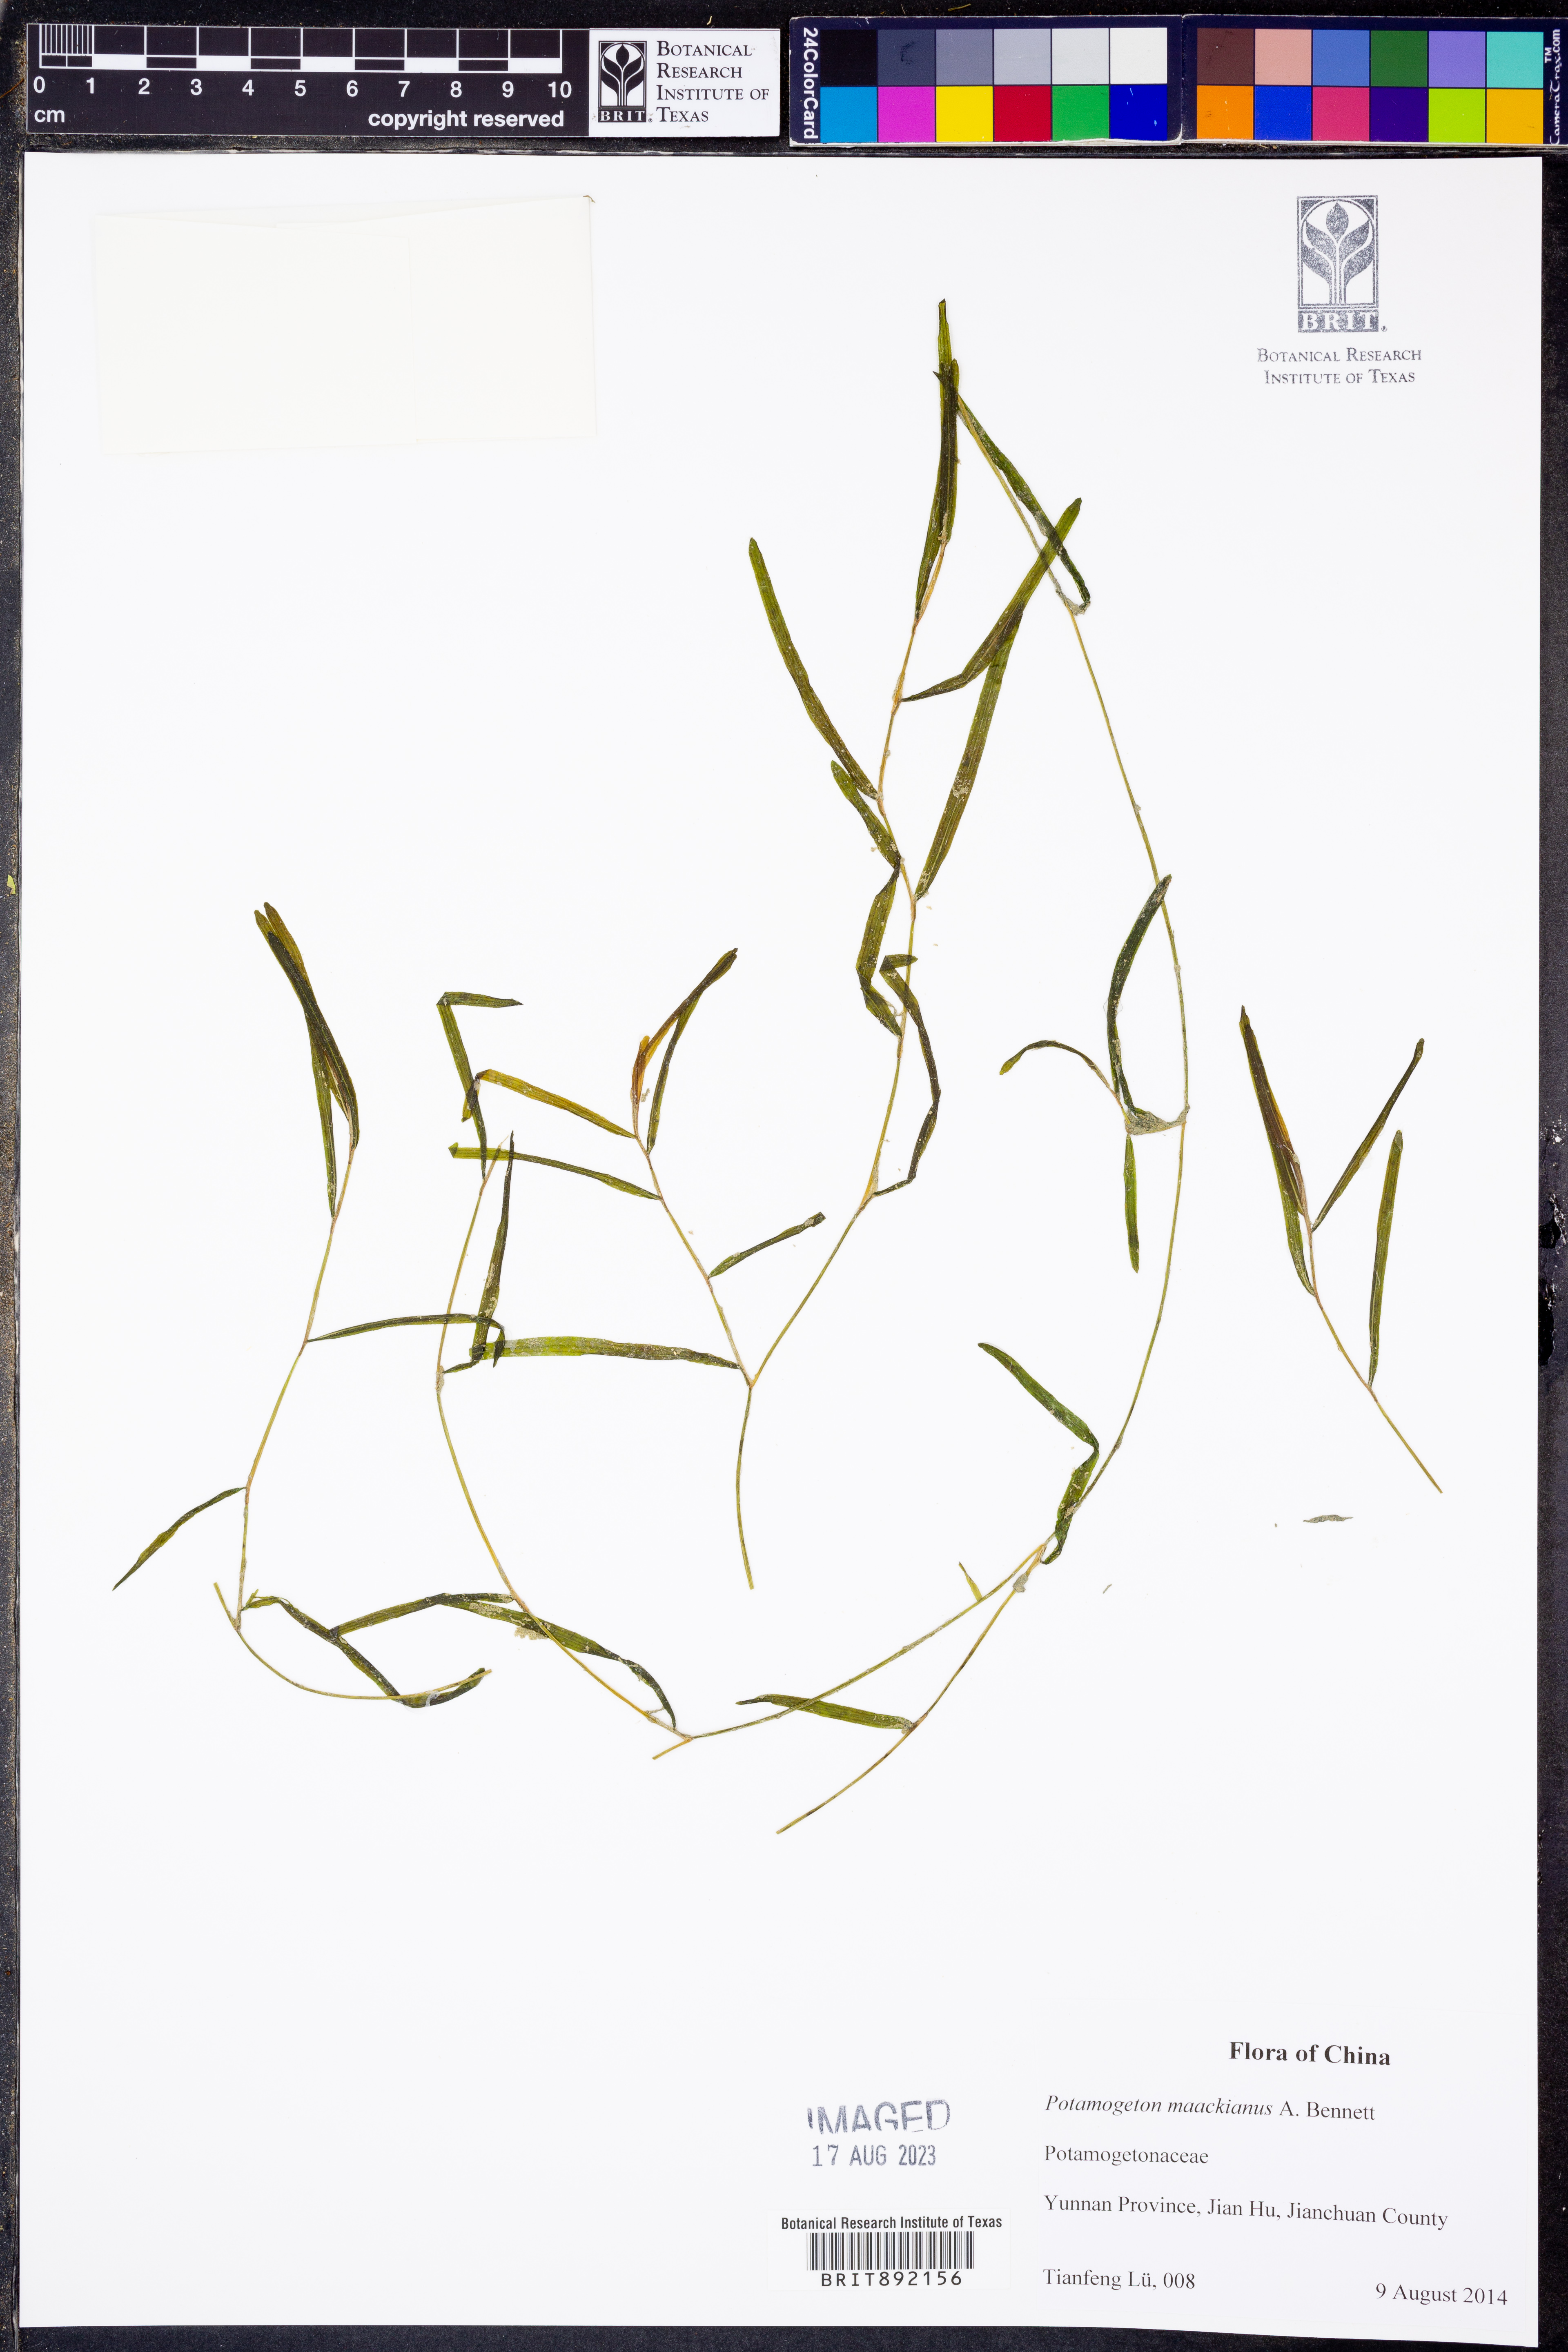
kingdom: Plantae
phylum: Tracheophyta
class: Liliopsida
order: Alismatales
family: Potamogetonaceae
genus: Potamogeton
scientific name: Potamogeton maackianus
